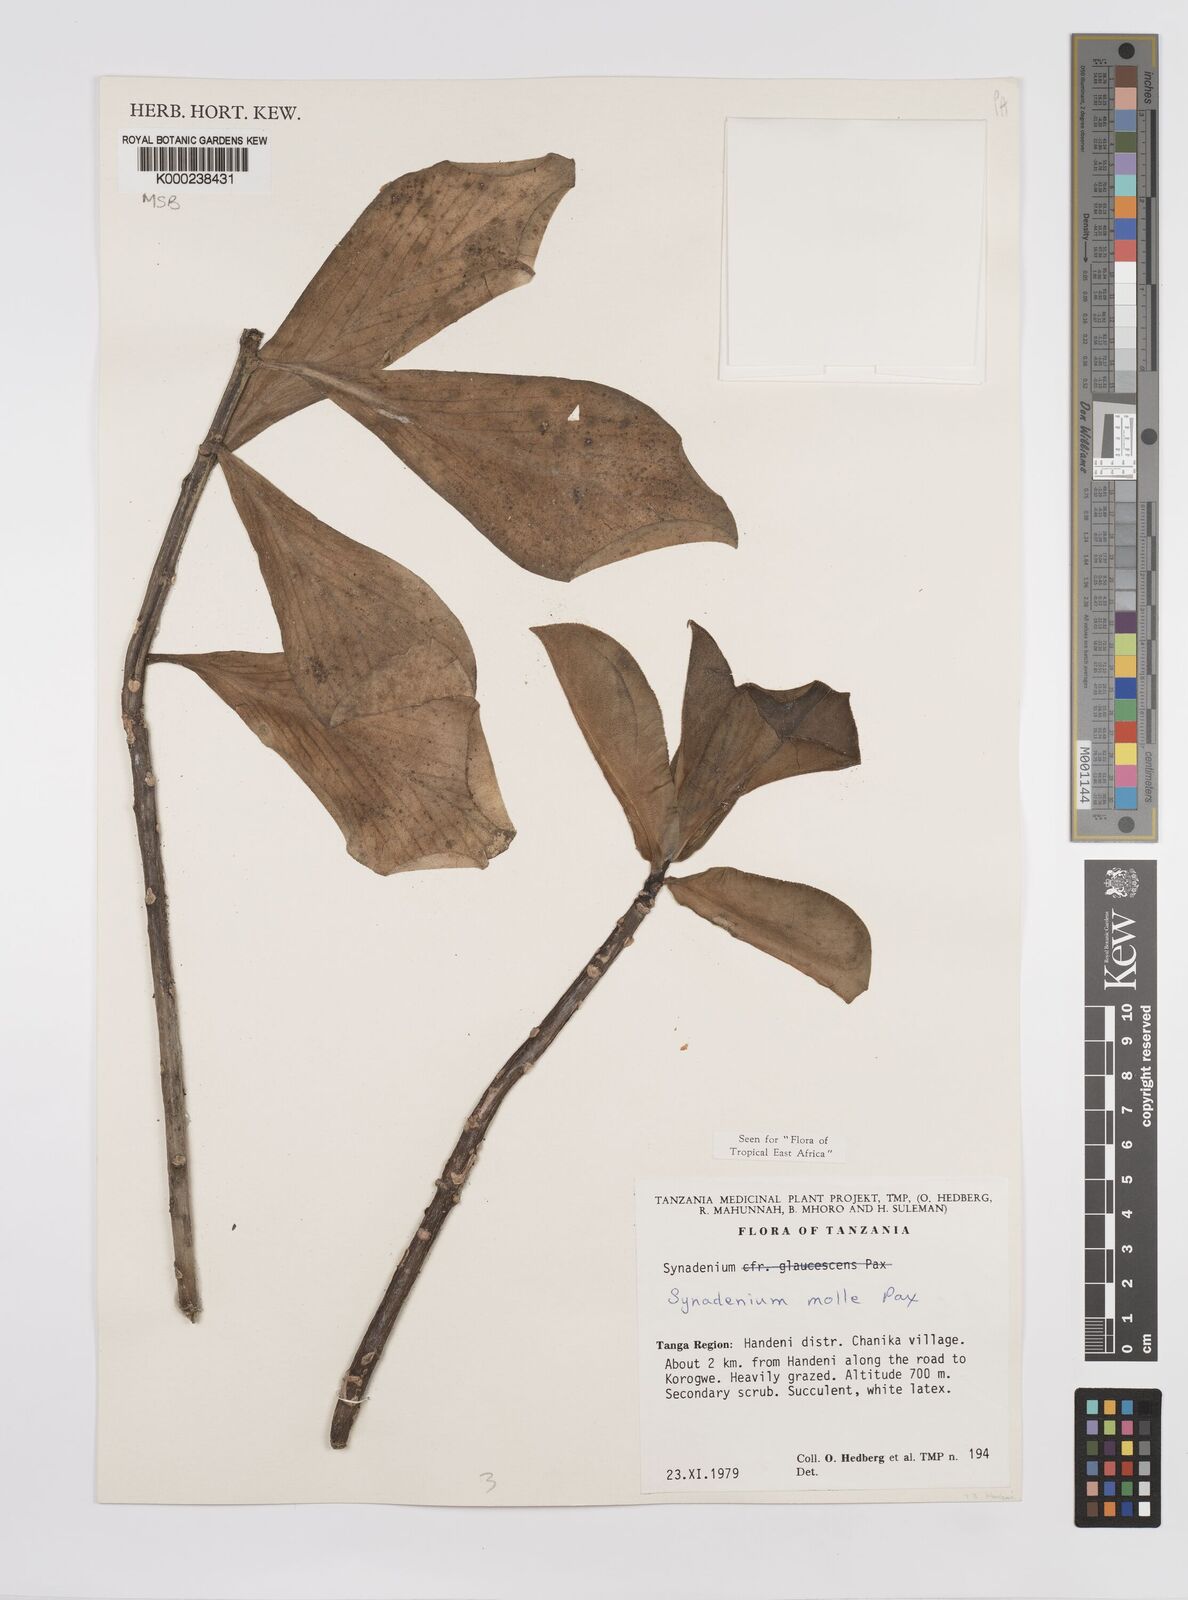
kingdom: Plantae
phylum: Tracheophyta
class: Magnoliopsida
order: Malpighiales
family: Euphorbiaceae
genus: Euphorbia
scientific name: Euphorbia pseudomollis
